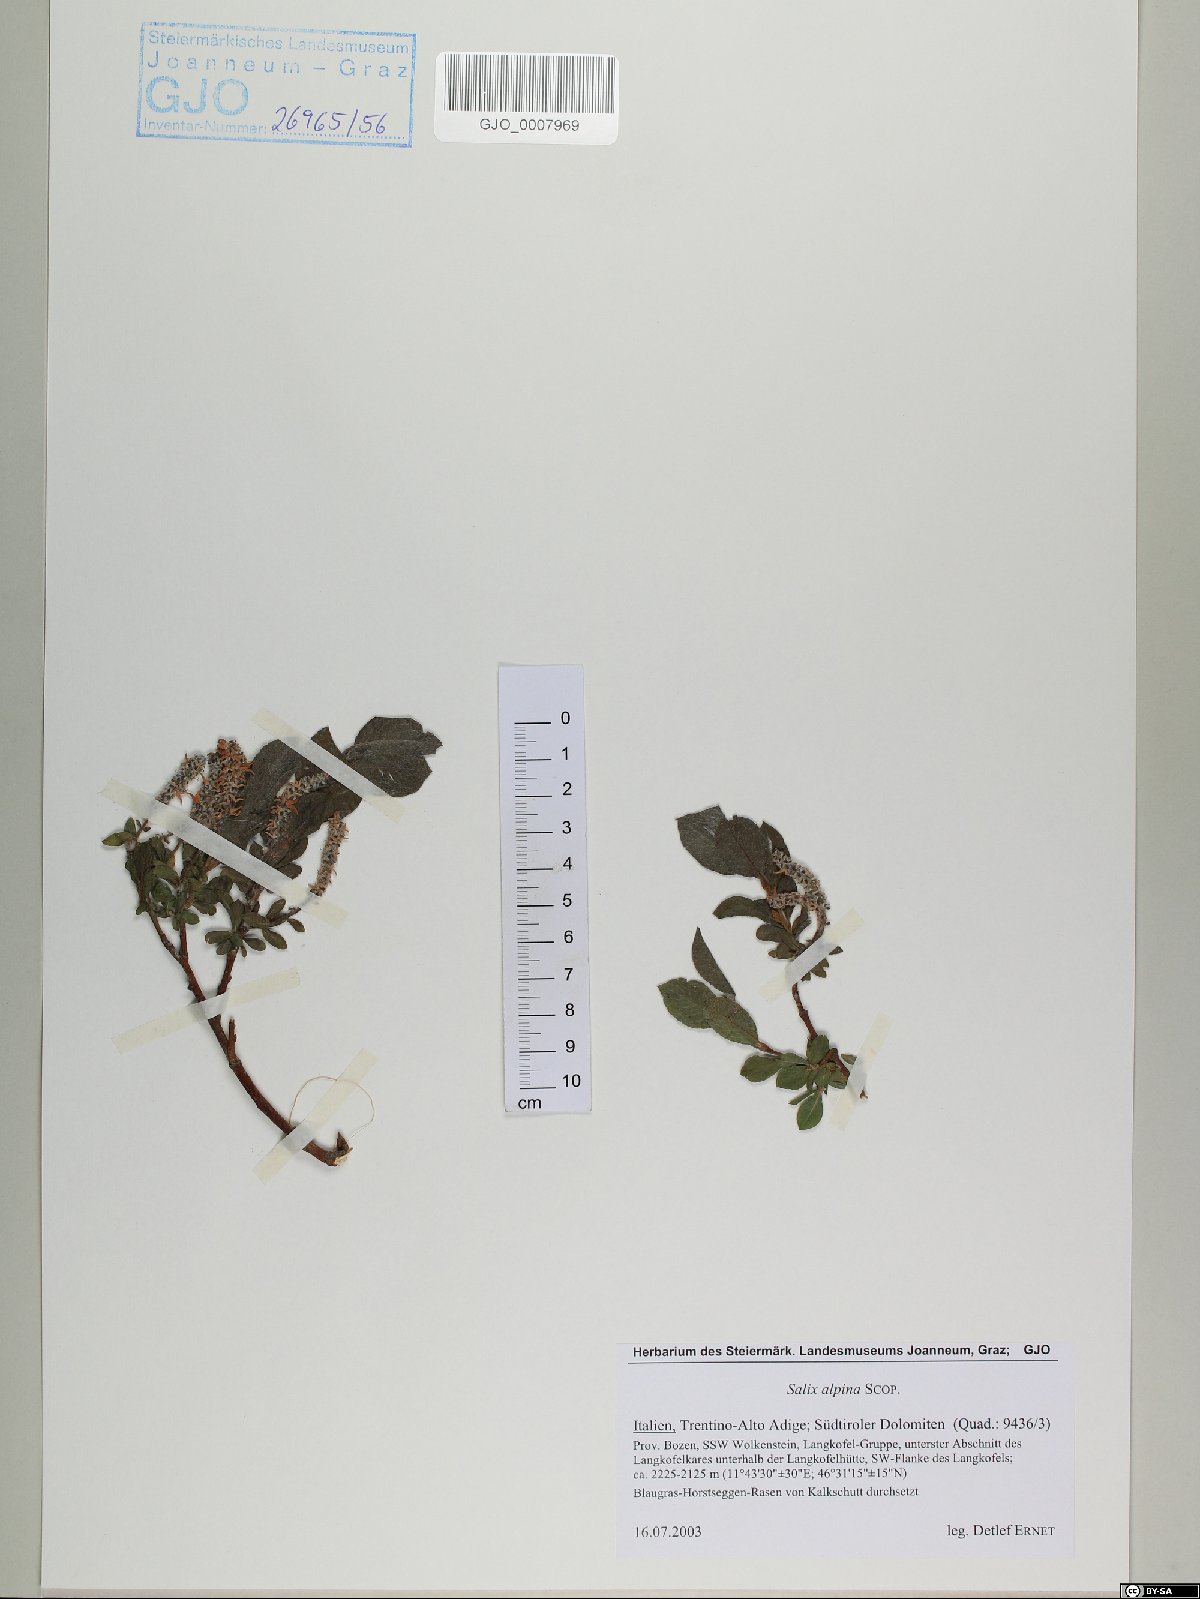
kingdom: Plantae
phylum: Tracheophyta
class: Magnoliopsida
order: Malpighiales
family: Salicaceae
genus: Salix
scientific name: Salix alpina
